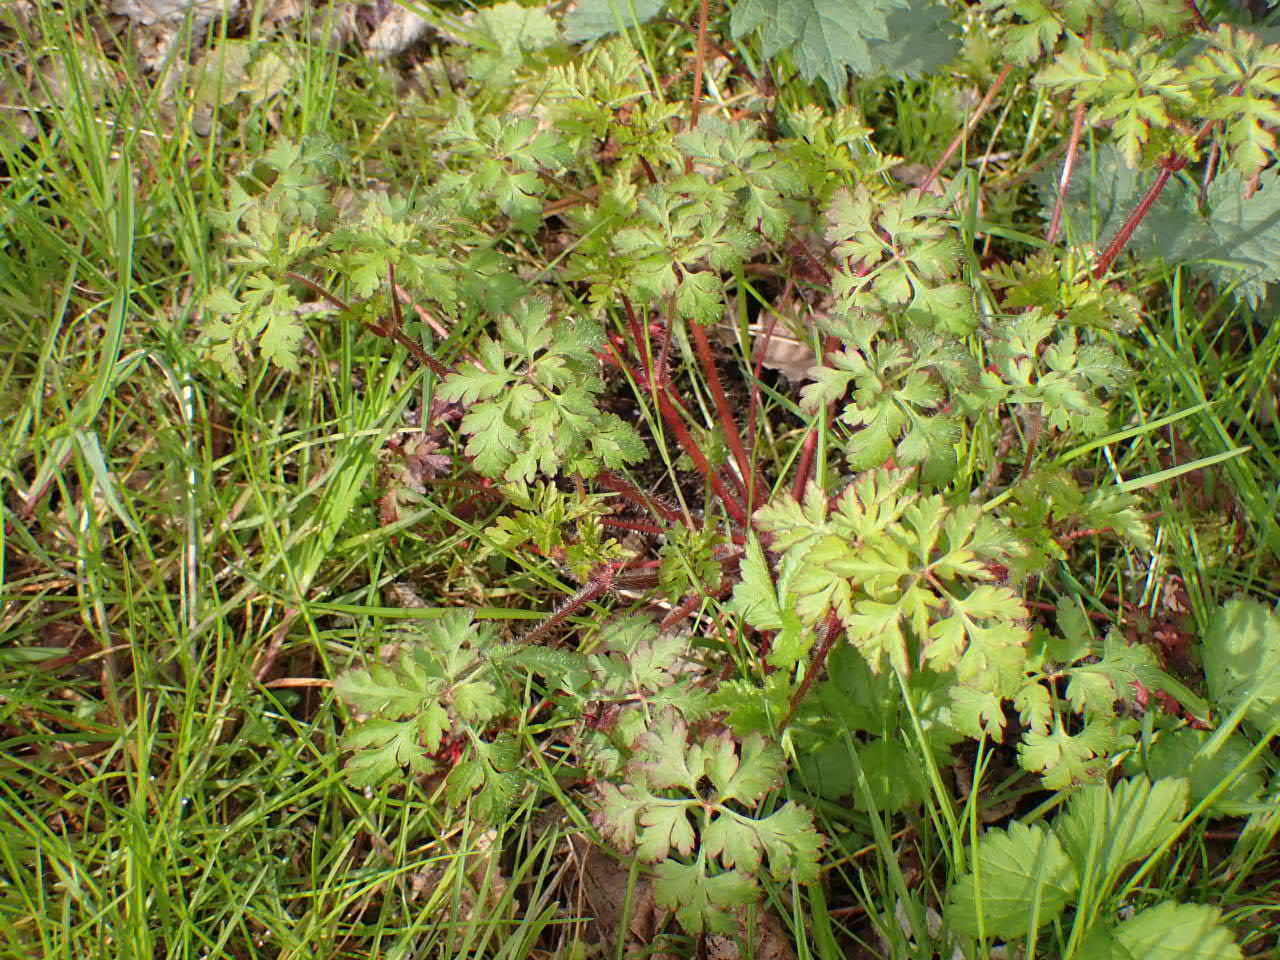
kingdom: Plantae
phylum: Tracheophyta
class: Magnoliopsida
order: Geraniales
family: Geraniaceae
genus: Geranium
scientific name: Geranium robertianum
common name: Stinkende storkenæb
